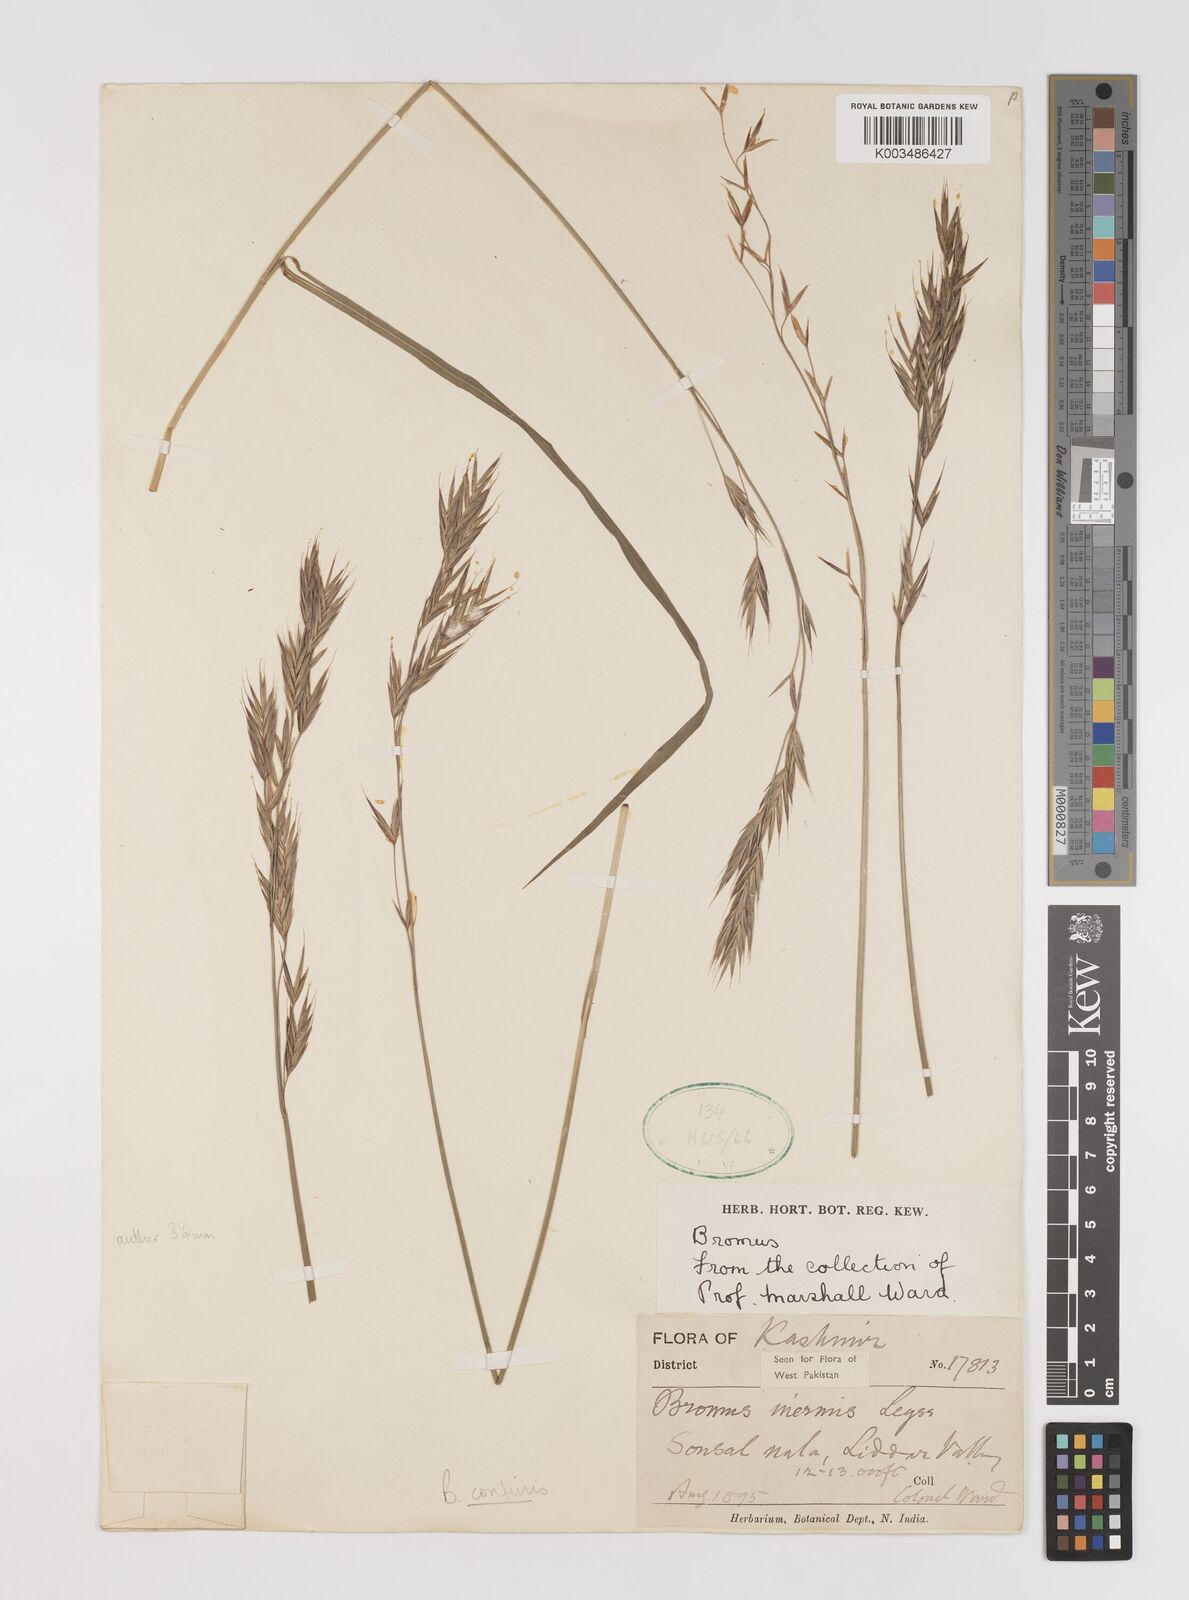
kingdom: Plantae
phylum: Tracheophyta
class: Liliopsida
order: Poales
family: Poaceae
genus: Bromus
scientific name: Bromus confinis
